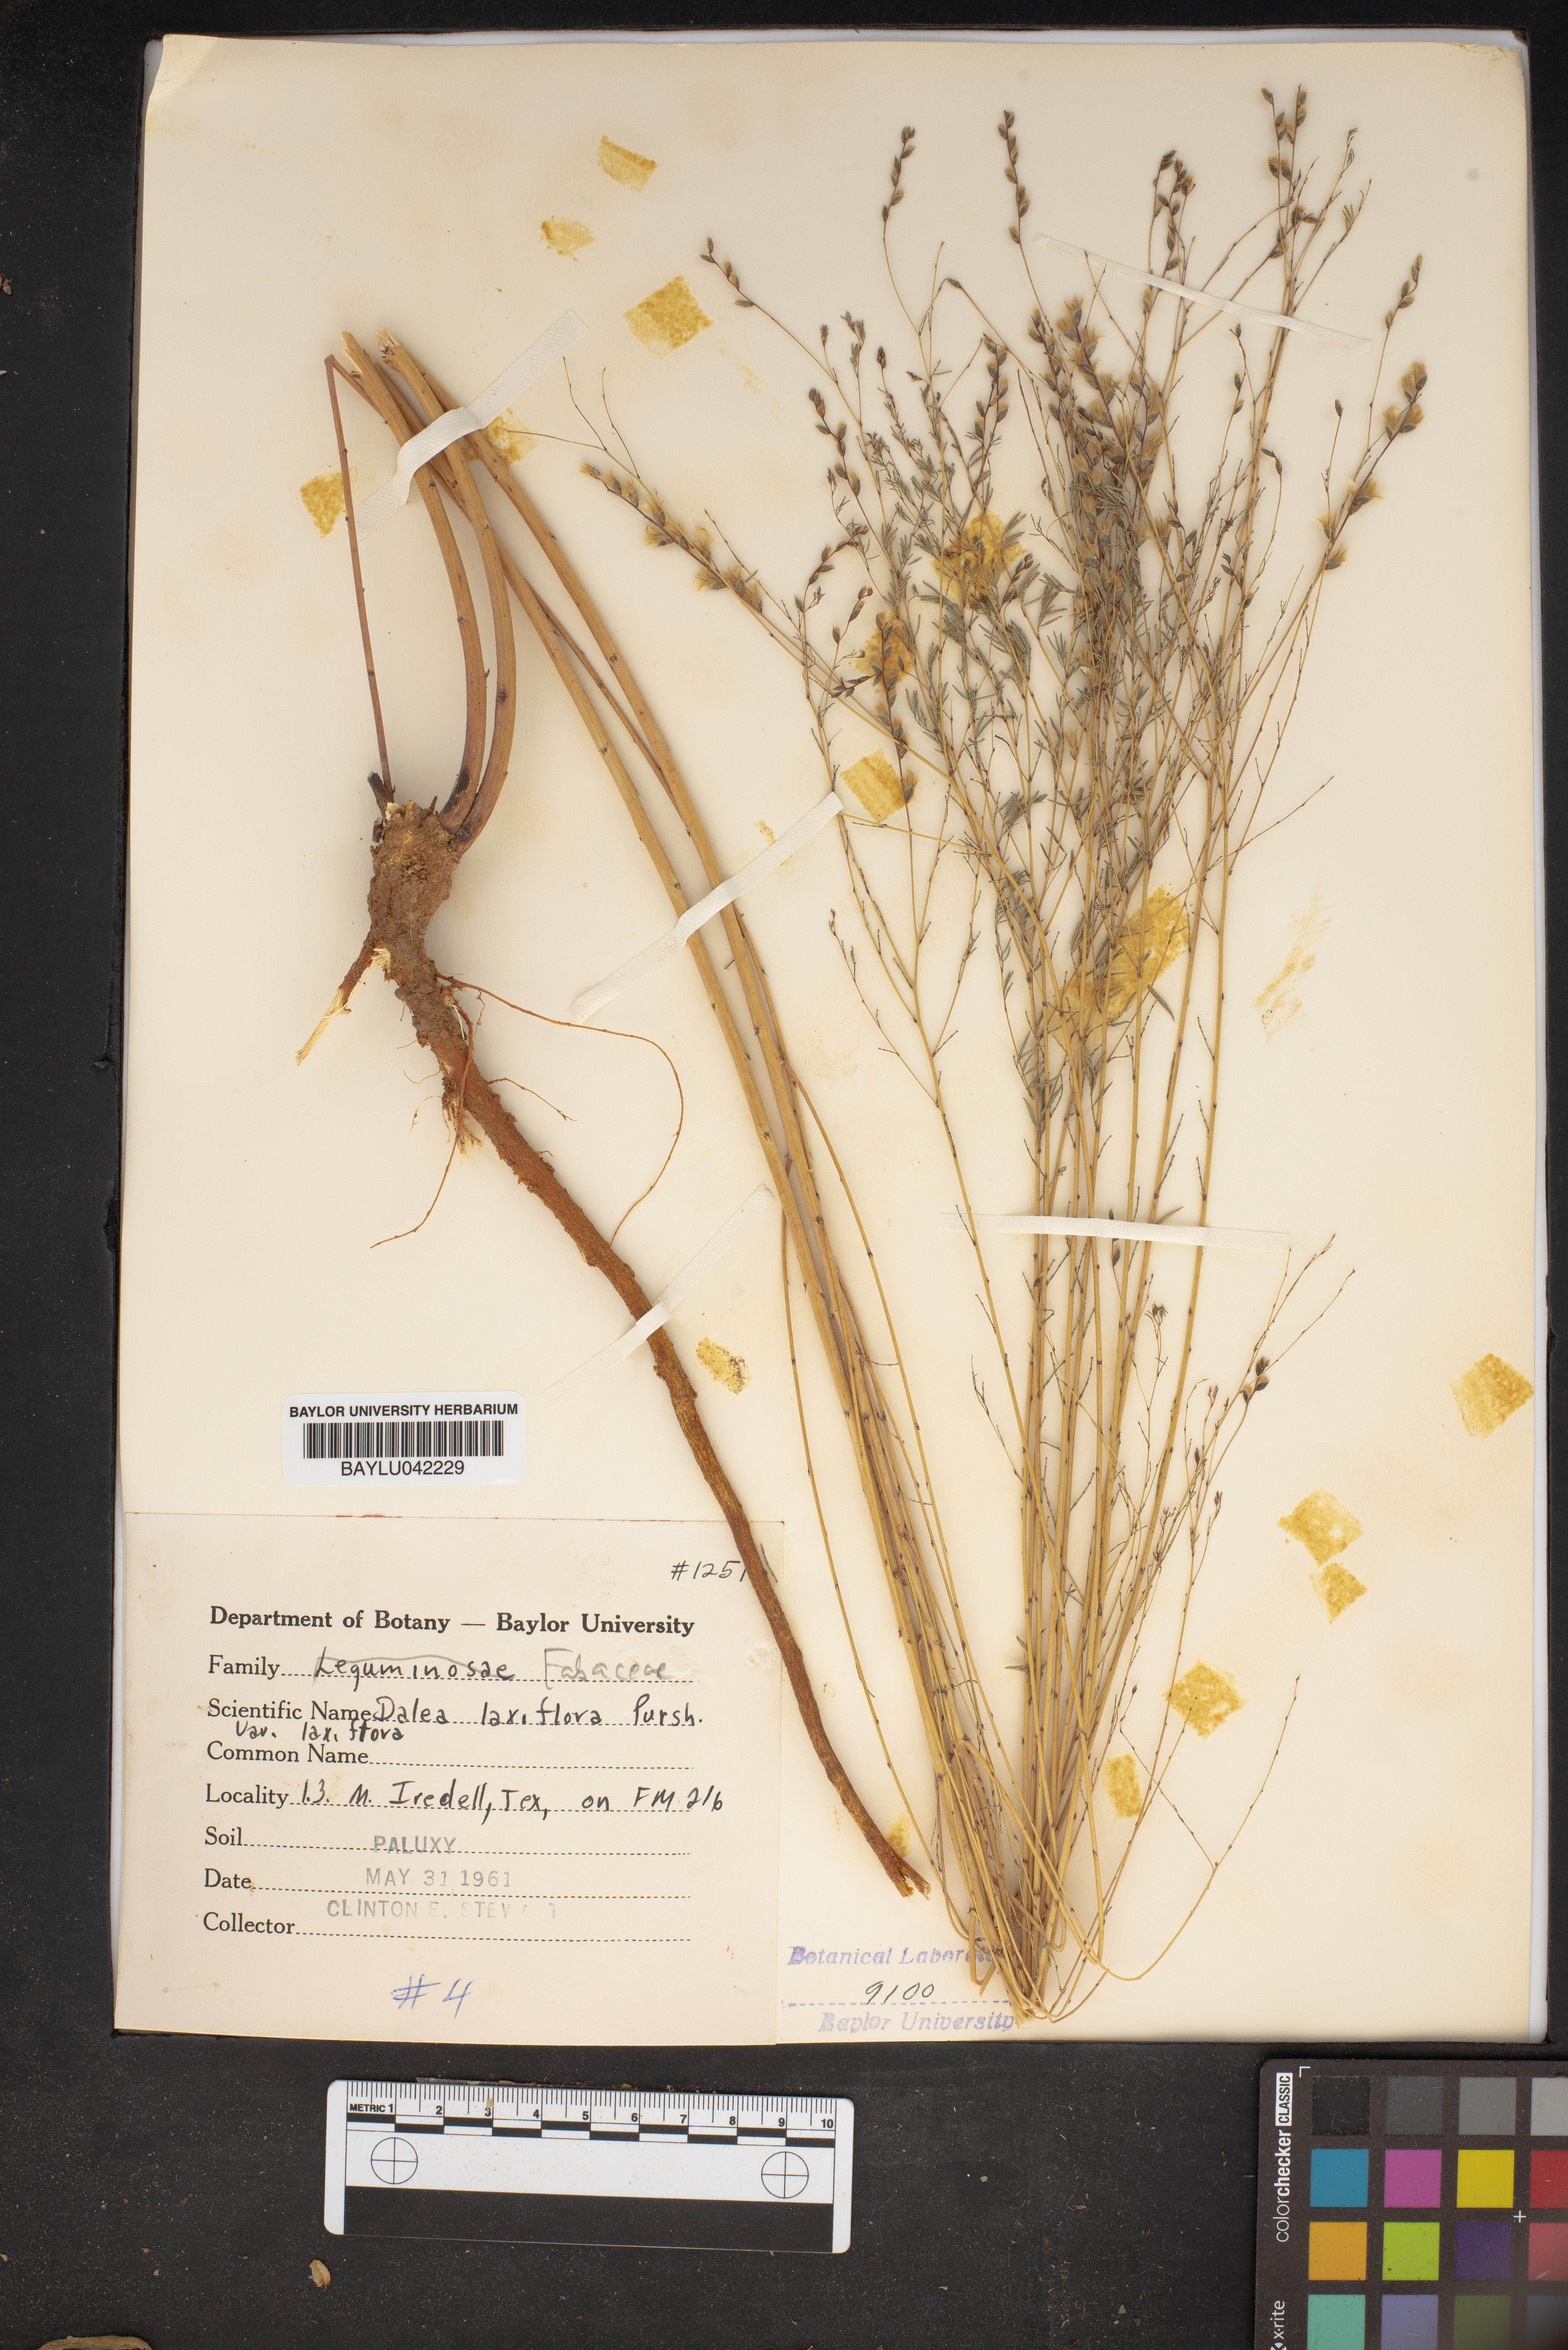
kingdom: Plantae
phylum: Tracheophyta
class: Magnoliopsida
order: Fabales
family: Fabaceae
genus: Dalea
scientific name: Dalea hegewischiana
